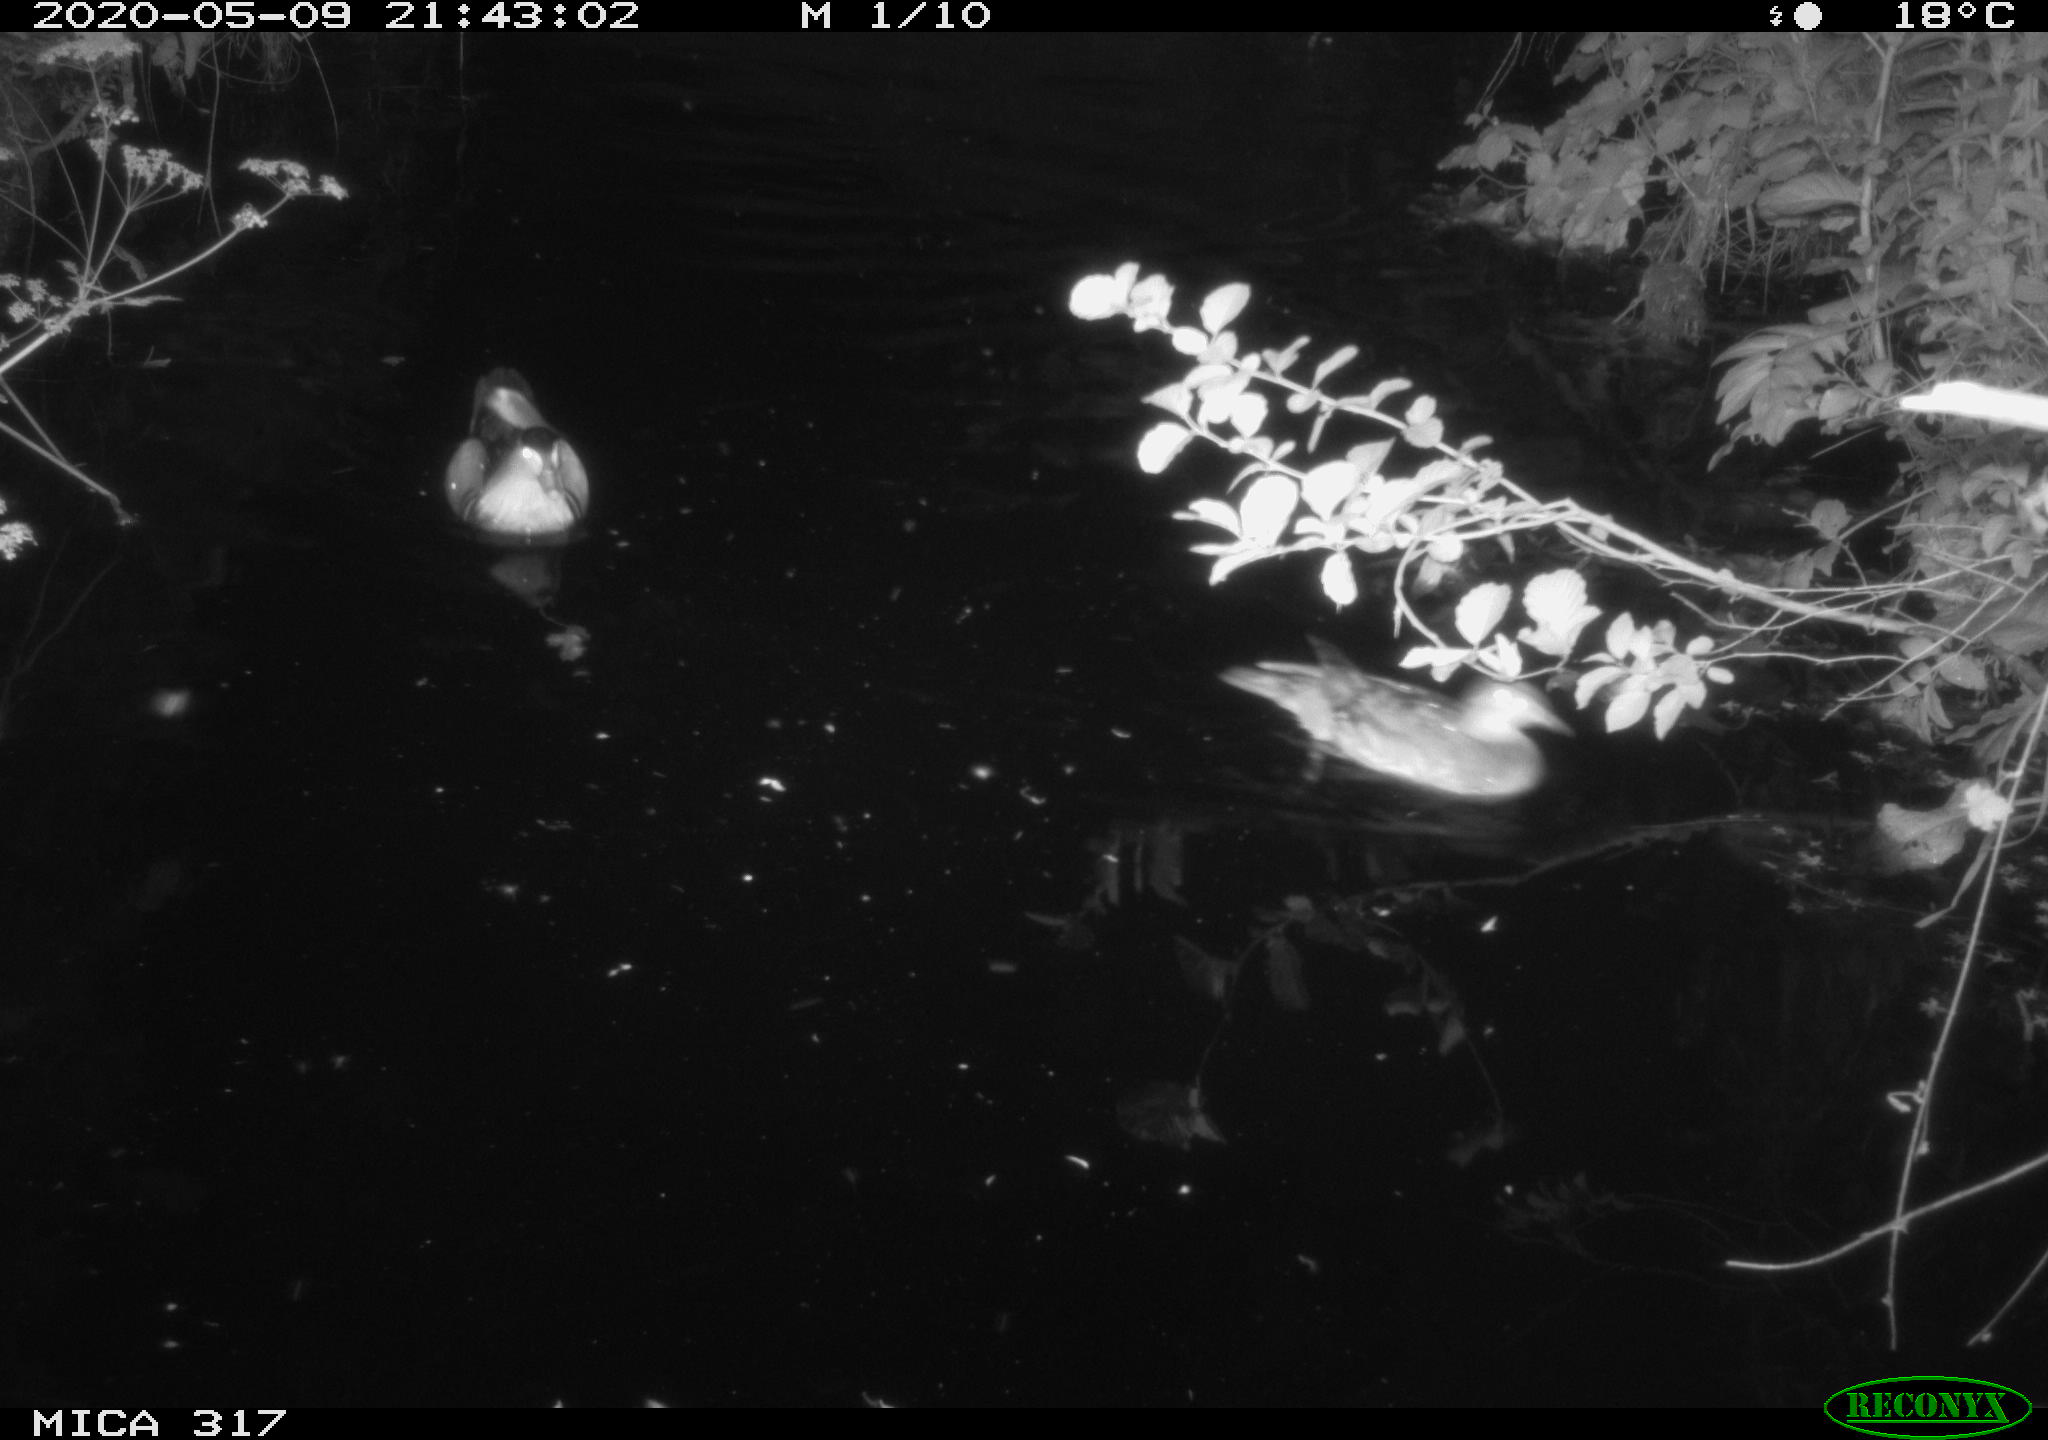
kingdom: Animalia
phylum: Chordata
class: Aves
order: Anseriformes
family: Anatidae
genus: Aix
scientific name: Aix galericulata
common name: Mandarin duck
